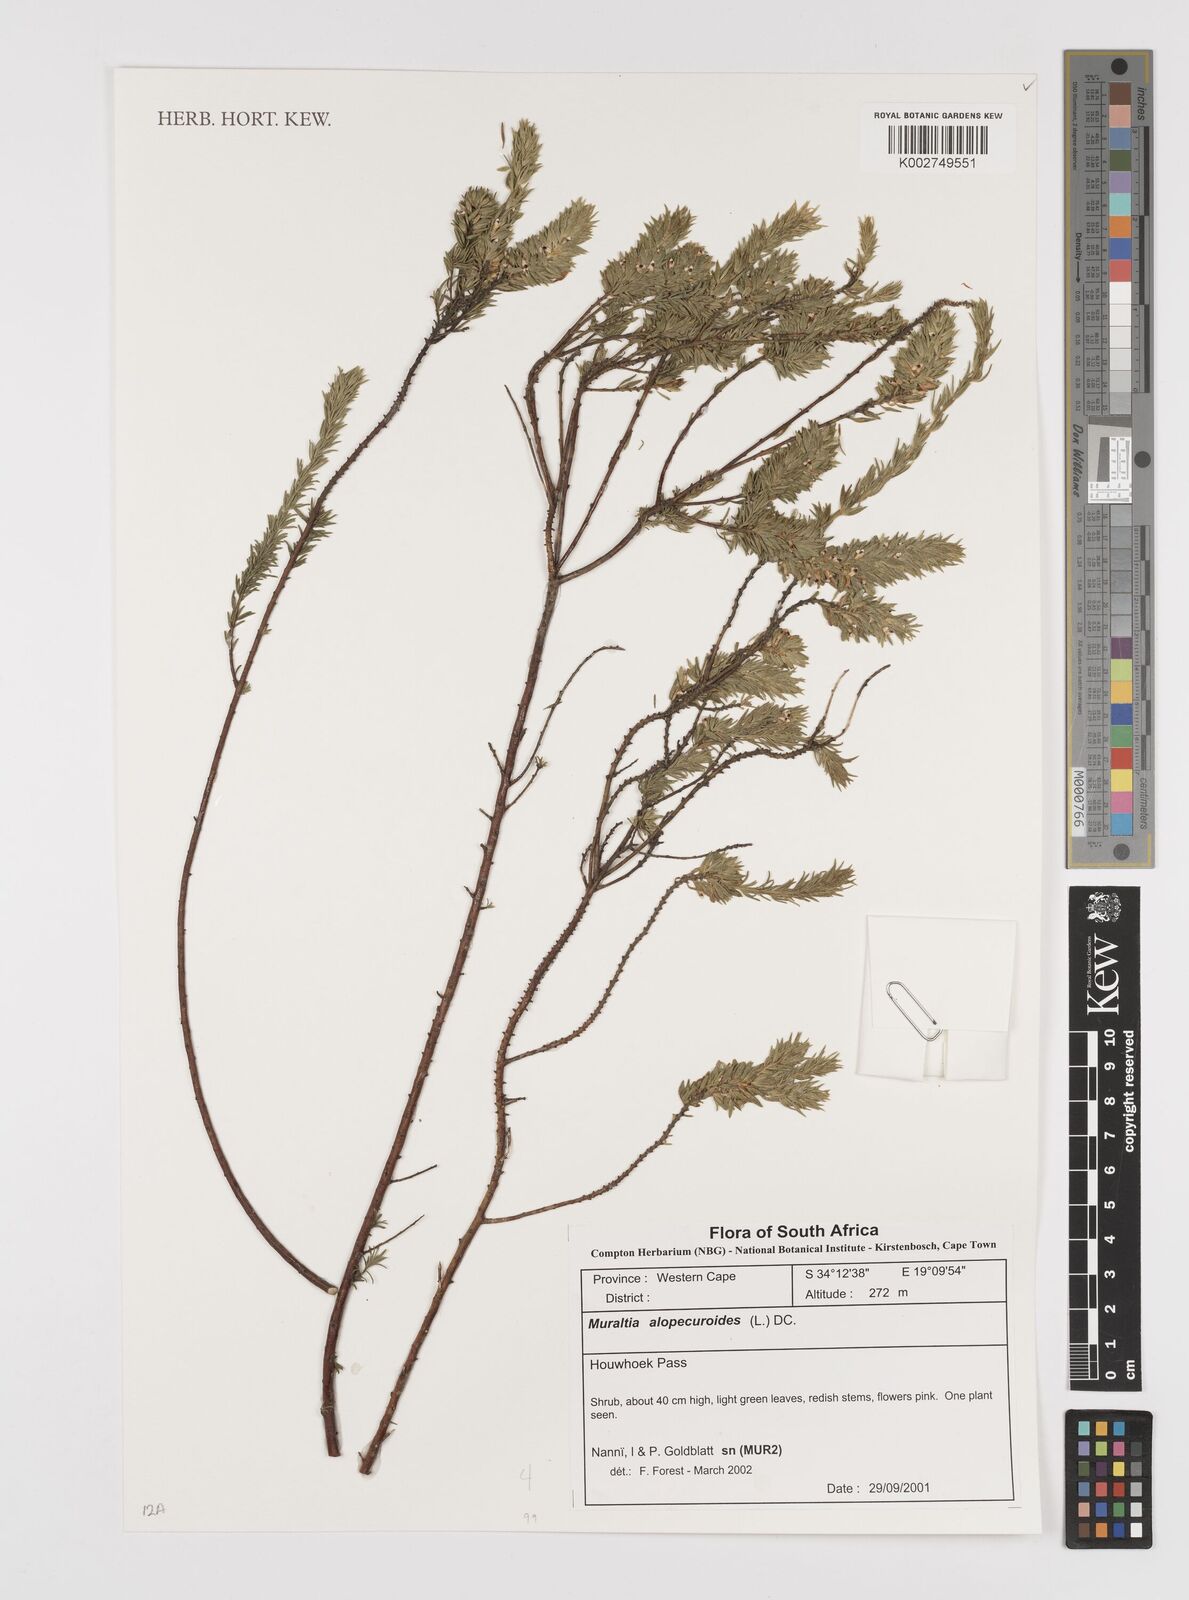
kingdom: Plantae
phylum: Tracheophyta
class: Magnoliopsida
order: Fabales
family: Polygalaceae
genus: Muraltia
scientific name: Muraltia alopecuroides
